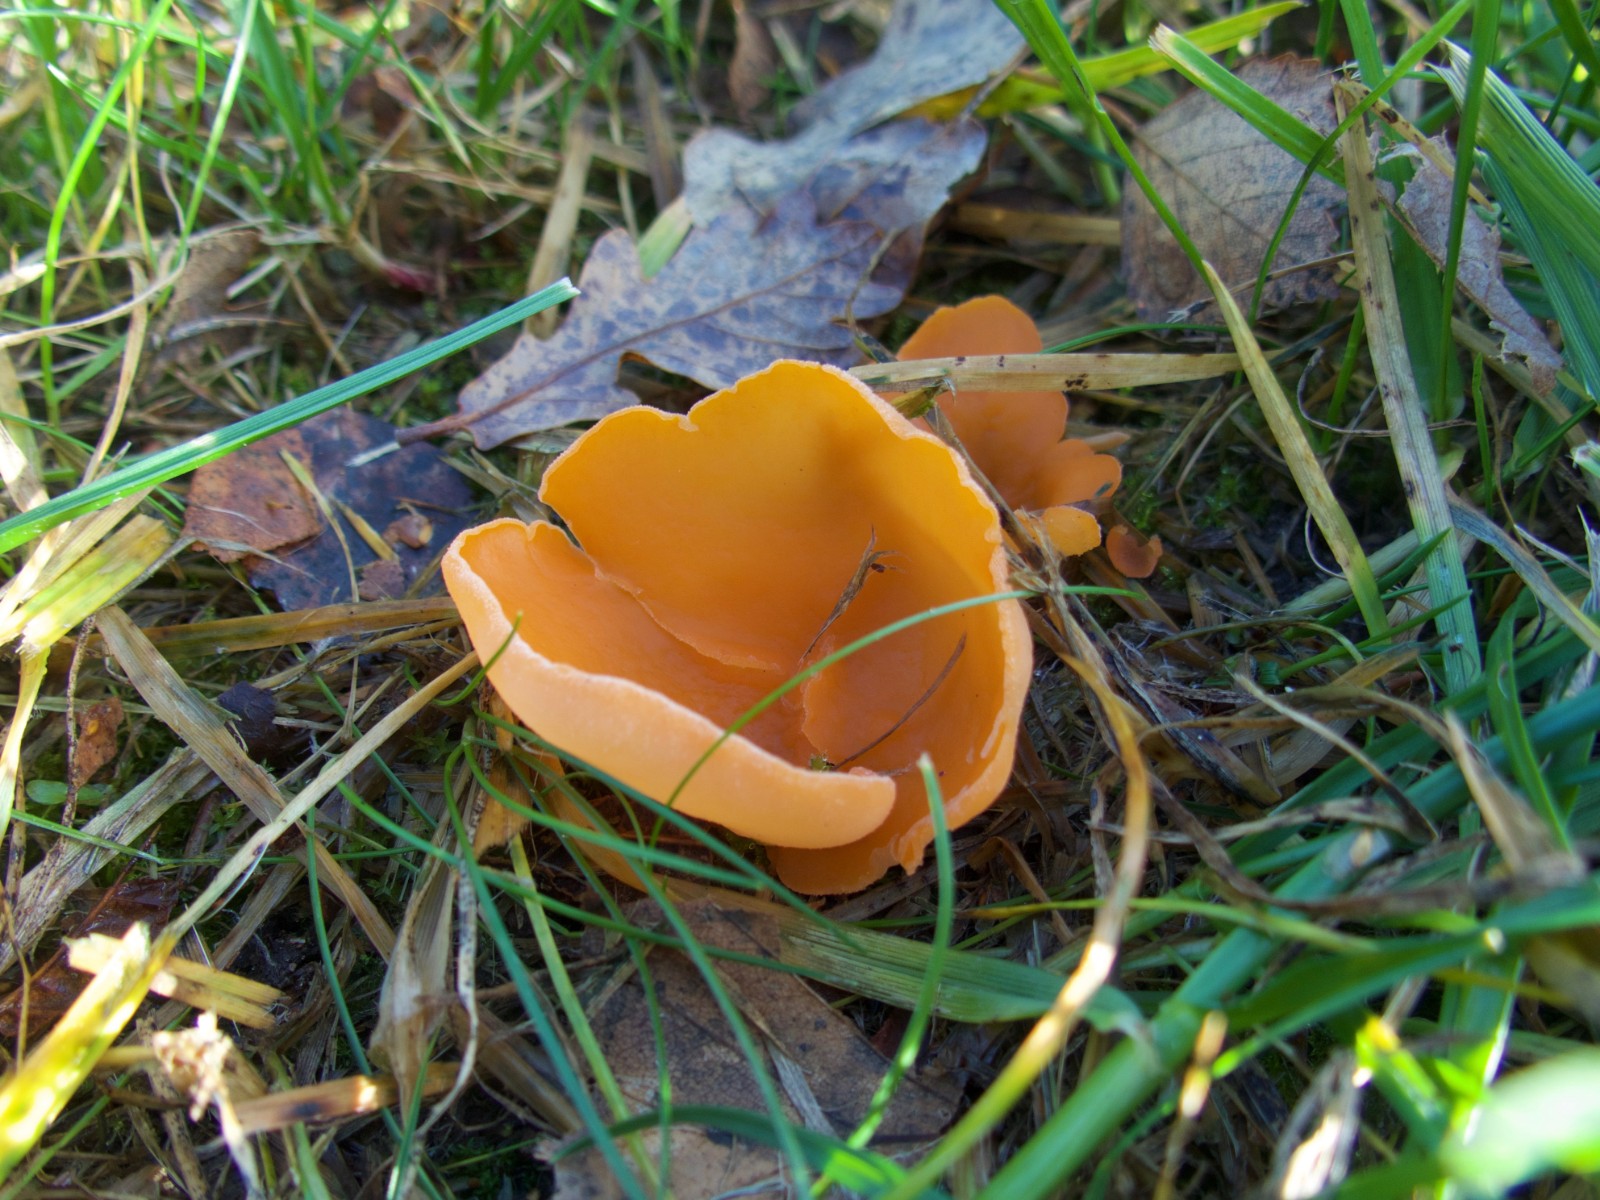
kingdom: Fungi
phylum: Ascomycota
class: Pezizomycetes
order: Pezizales
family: Pyronemataceae
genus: Aleuria
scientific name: Aleuria aurantia
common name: almindelig orangebæger
